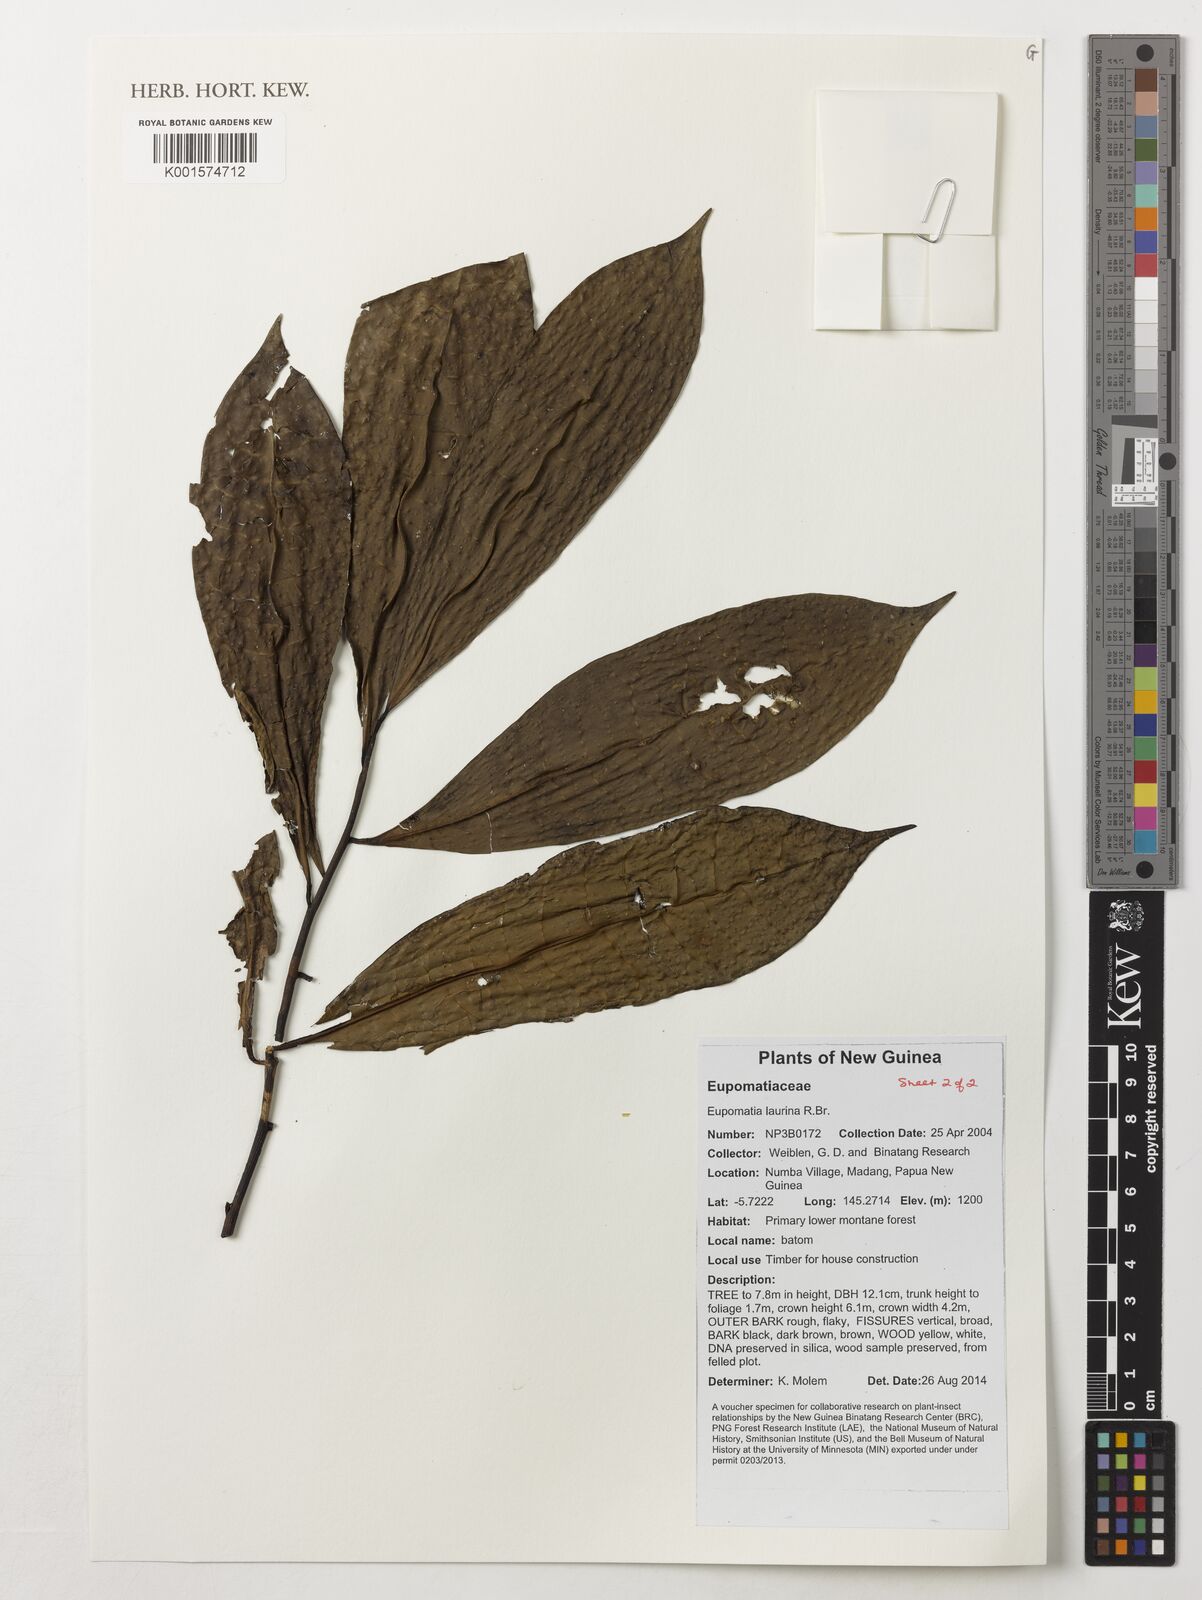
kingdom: Plantae
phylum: Tracheophyta
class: Magnoliopsida
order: Magnoliales
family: Eupomatiaceae
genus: Eupomatia
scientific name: Eupomatia laurina
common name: Bolwarra
